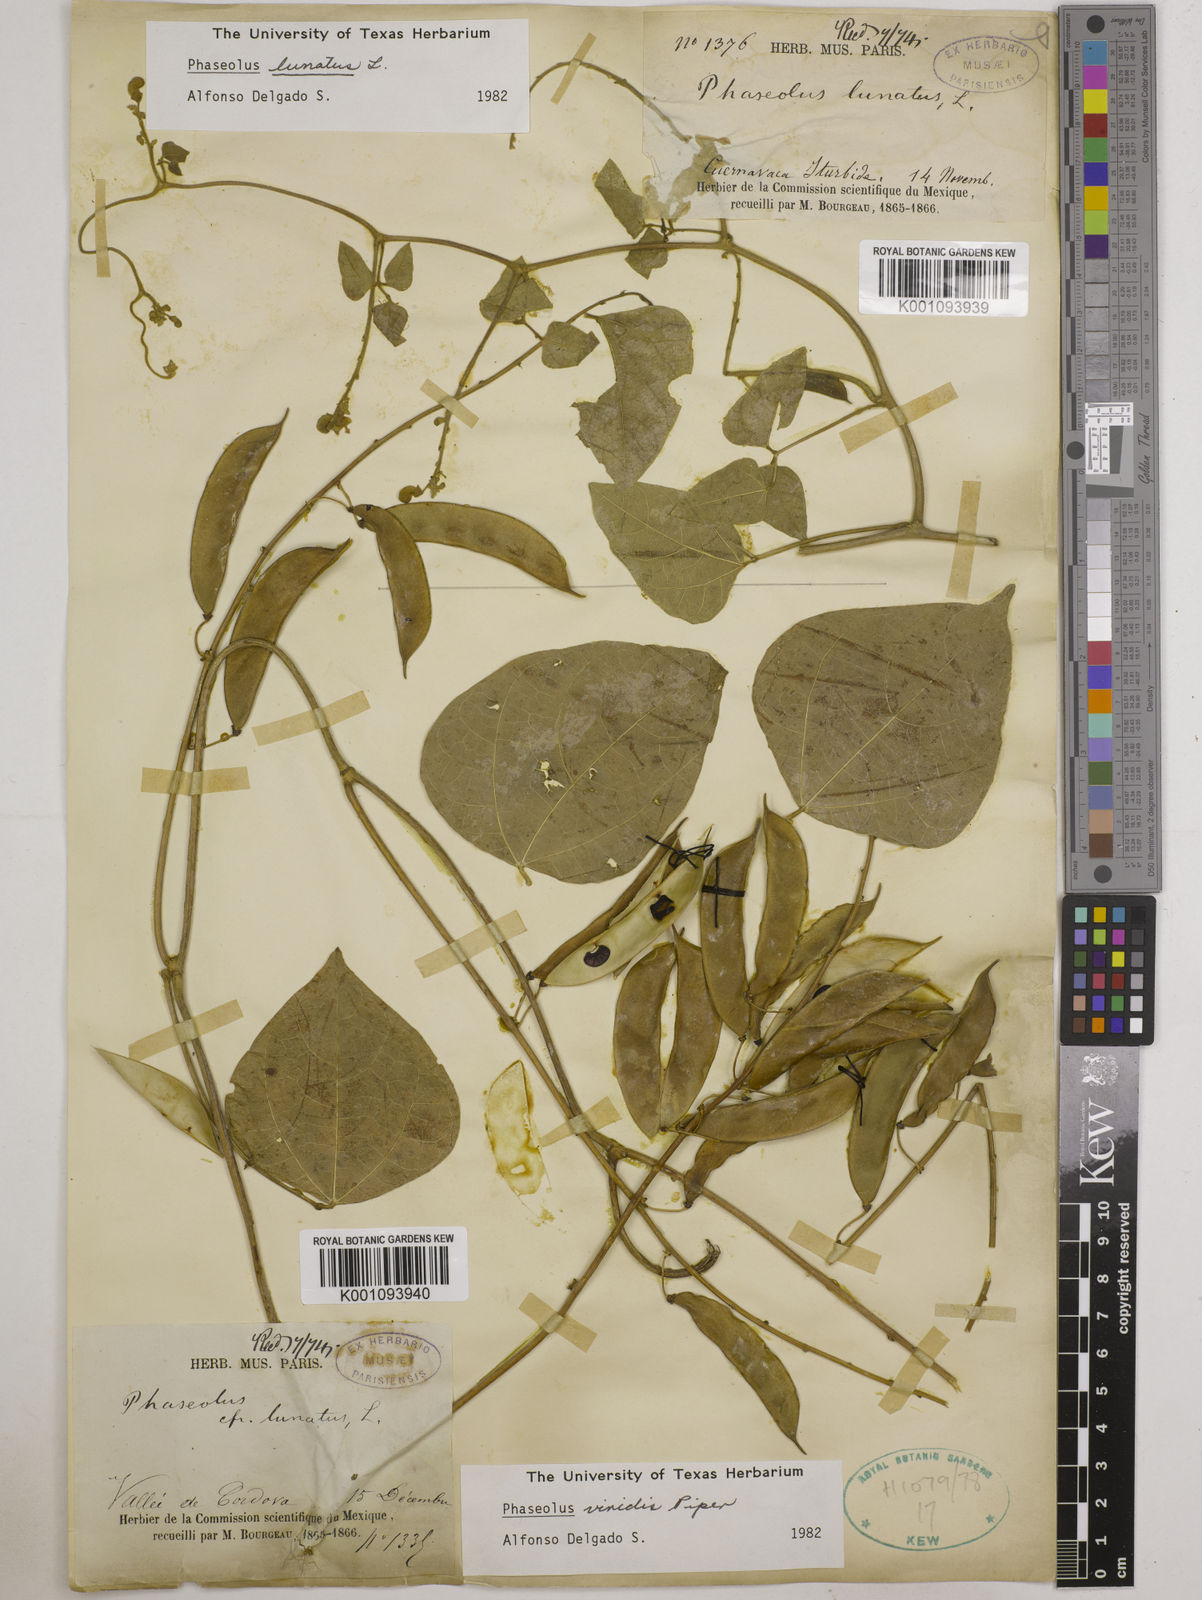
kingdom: Plantae
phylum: Tracheophyta
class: Magnoliopsida
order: Fabales
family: Fabaceae
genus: Phaseolus
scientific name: Phaseolus viridis
